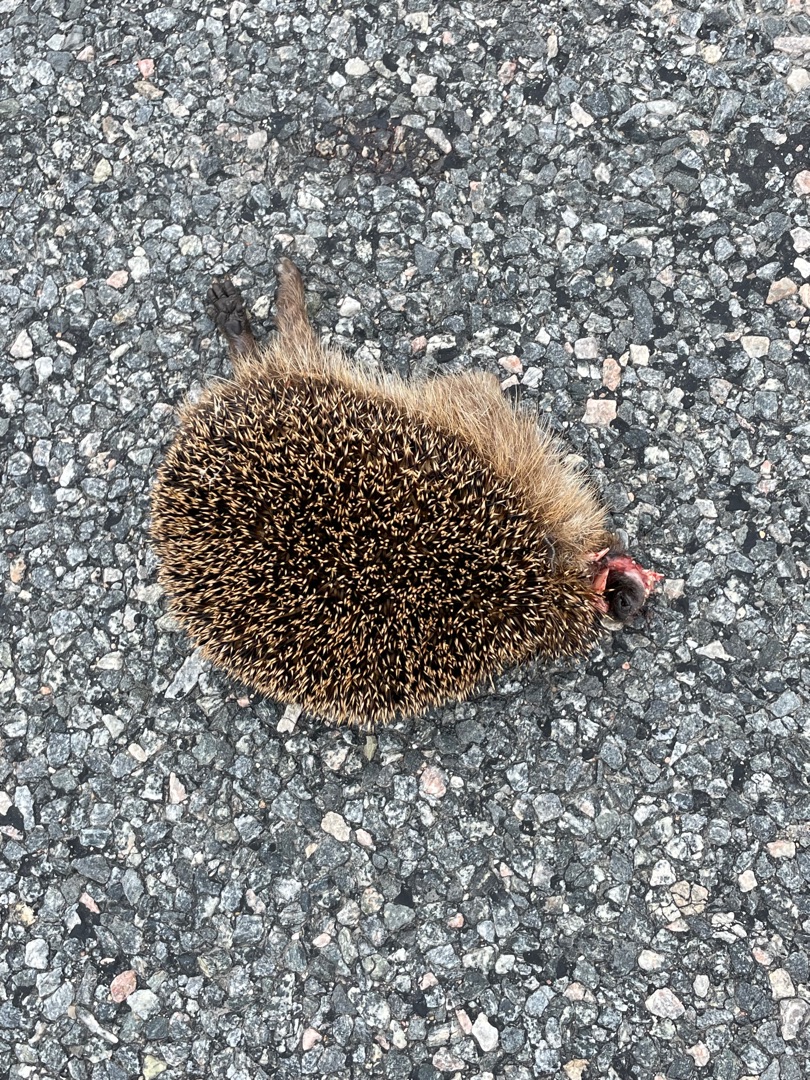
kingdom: Animalia
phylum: Chordata
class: Mammalia
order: Erinaceomorpha
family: Erinaceidae
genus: Erinaceus
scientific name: Erinaceus europaeus
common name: Pindsvin
